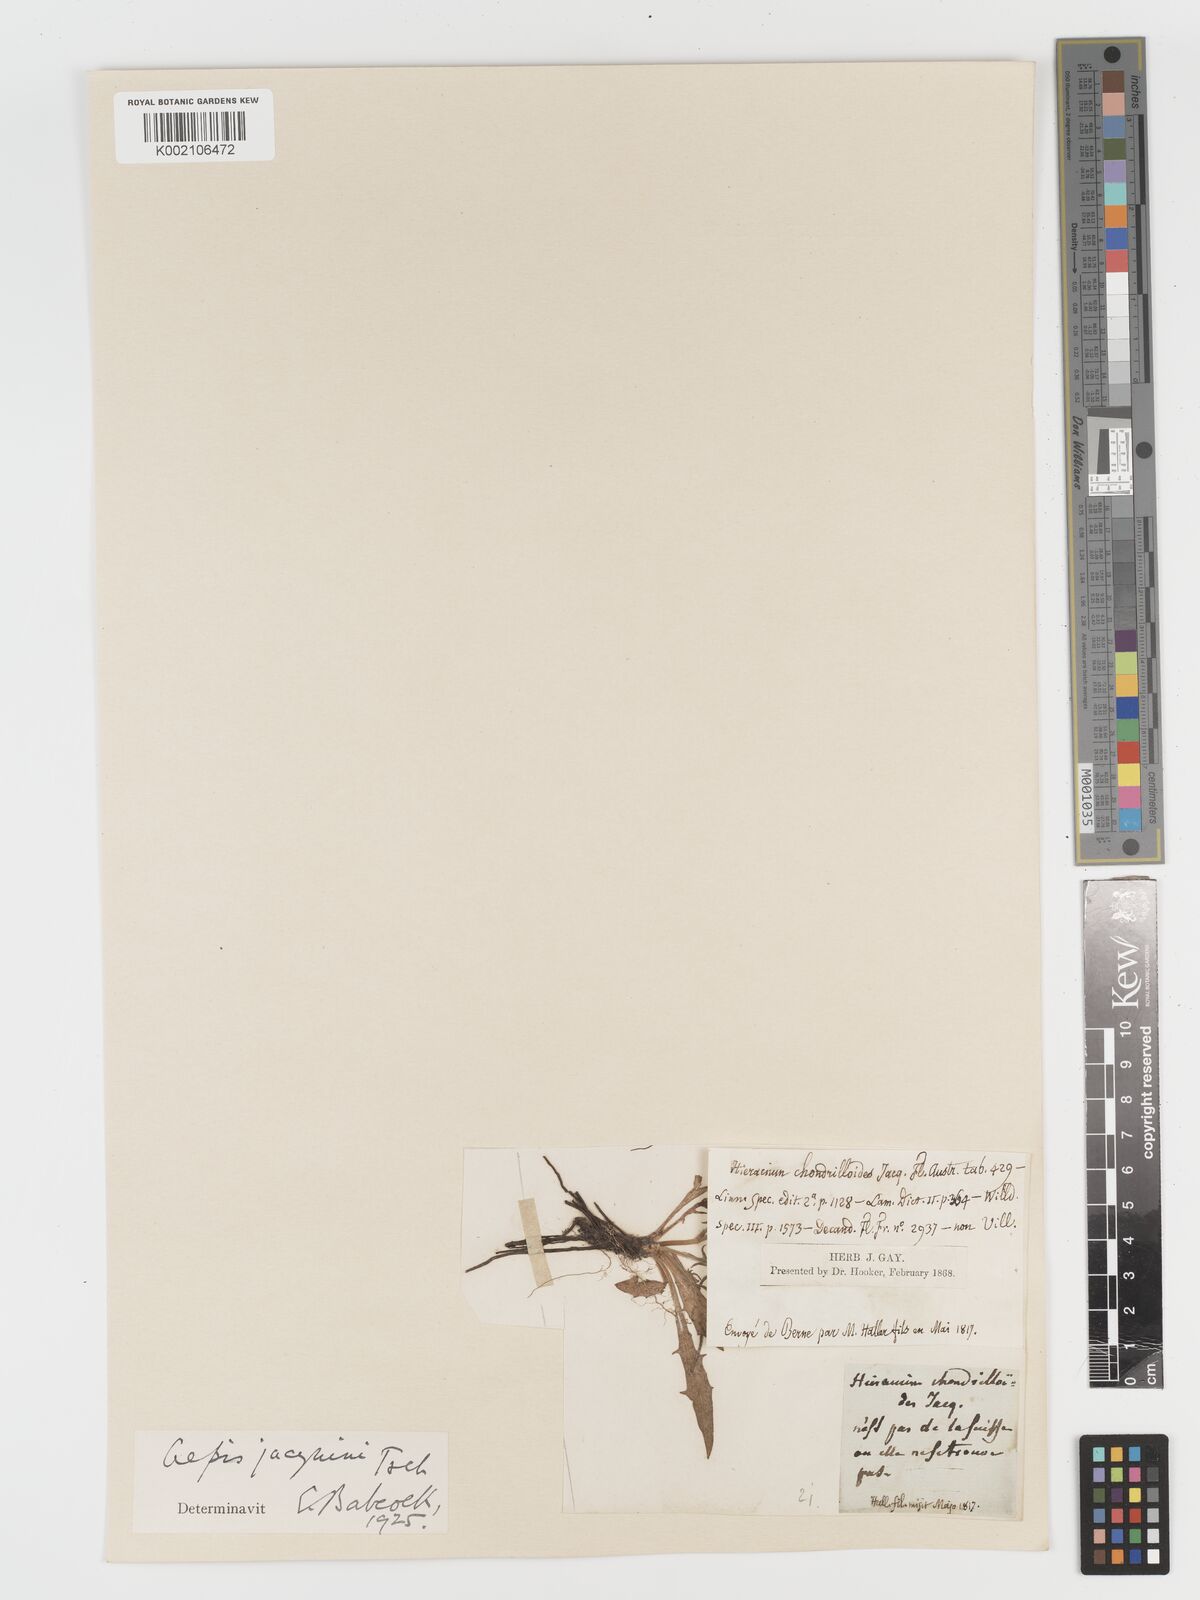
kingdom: Plantae
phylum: Tracheophyta
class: Magnoliopsida
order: Asterales
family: Asteraceae
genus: Crepis
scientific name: Crepis jacquinii
